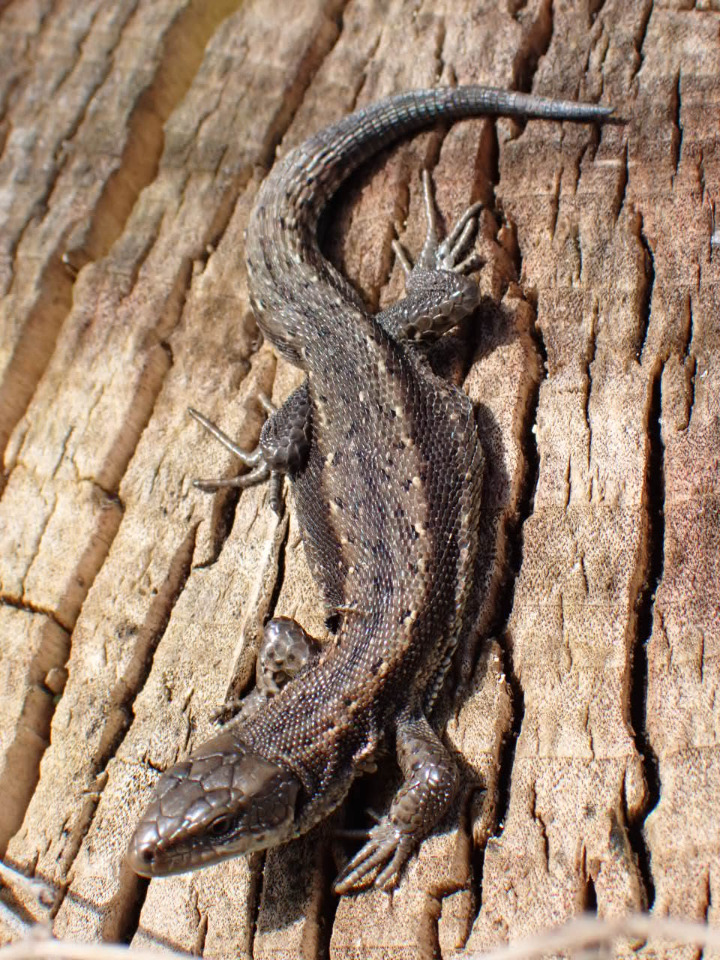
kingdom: Animalia
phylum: Chordata
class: Squamata
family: Lacertidae
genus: Zootoca
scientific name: Zootoca vivipara
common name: Skovfirben
